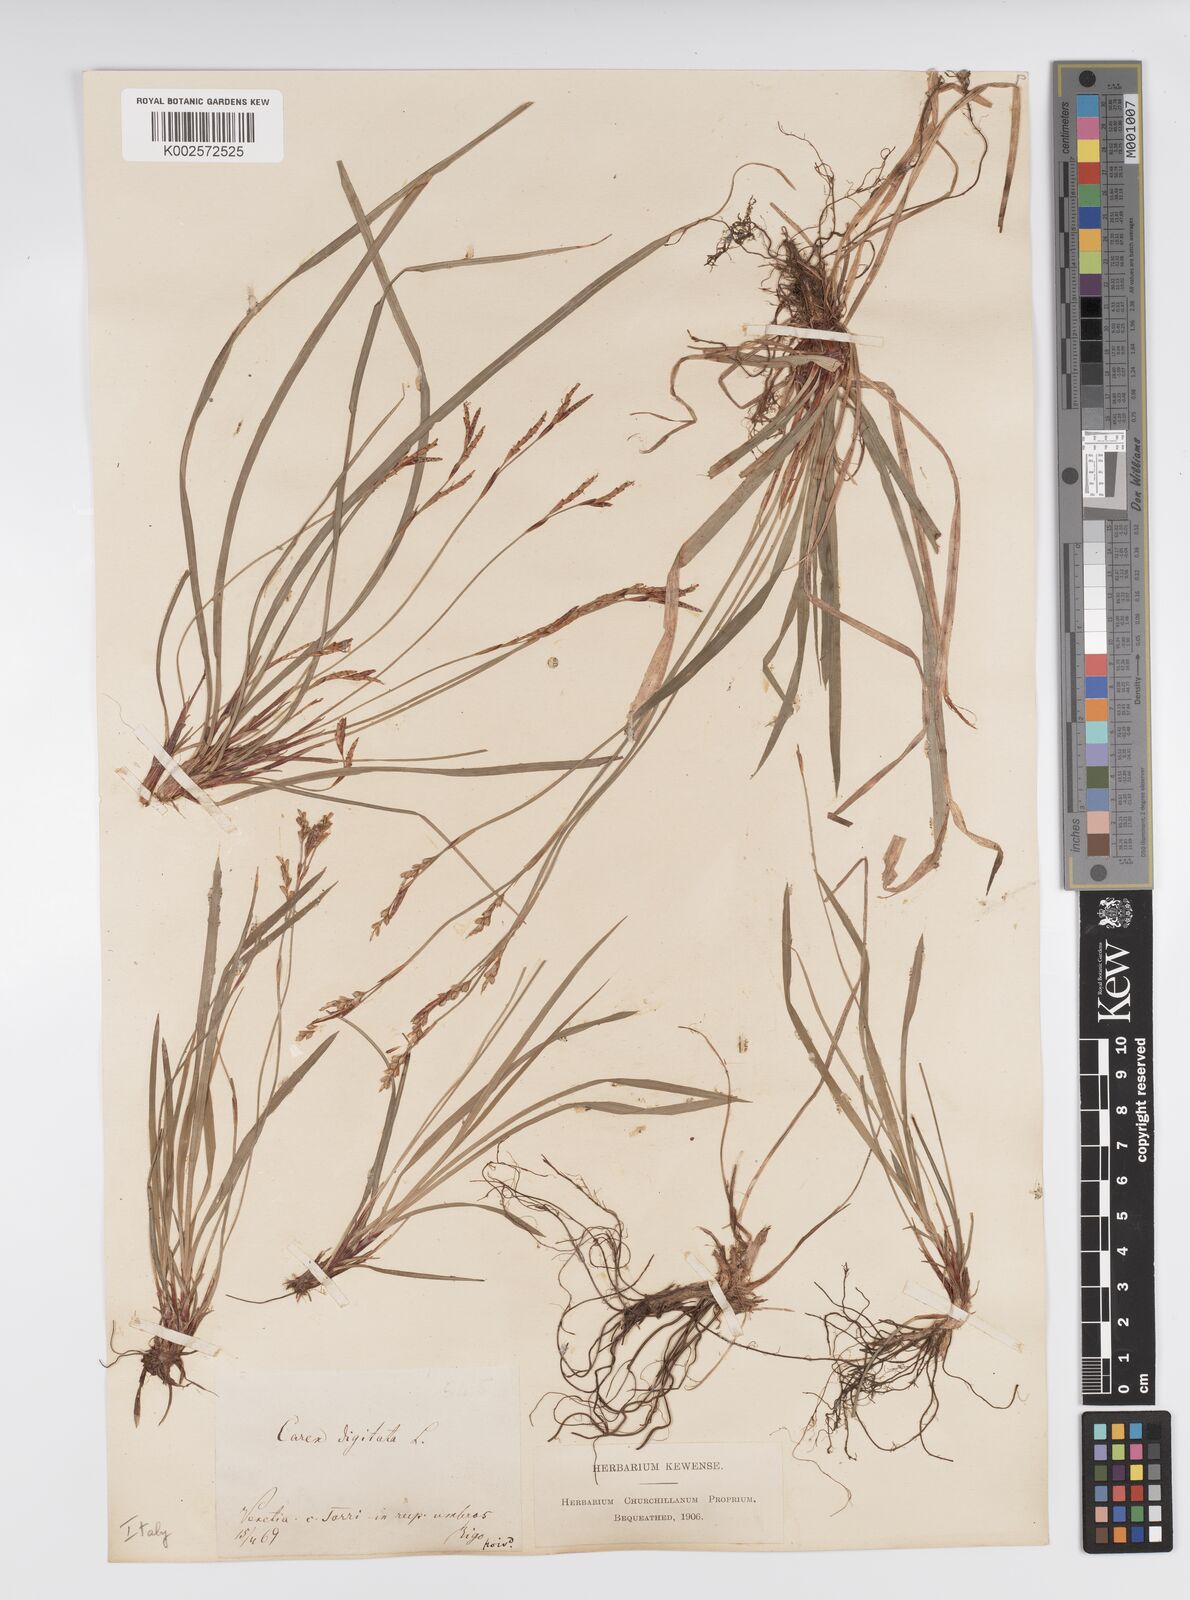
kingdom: Plantae
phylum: Tracheophyta
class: Liliopsida
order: Poales
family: Cyperaceae
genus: Carex
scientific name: Carex digitata
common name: Fingered sedge
